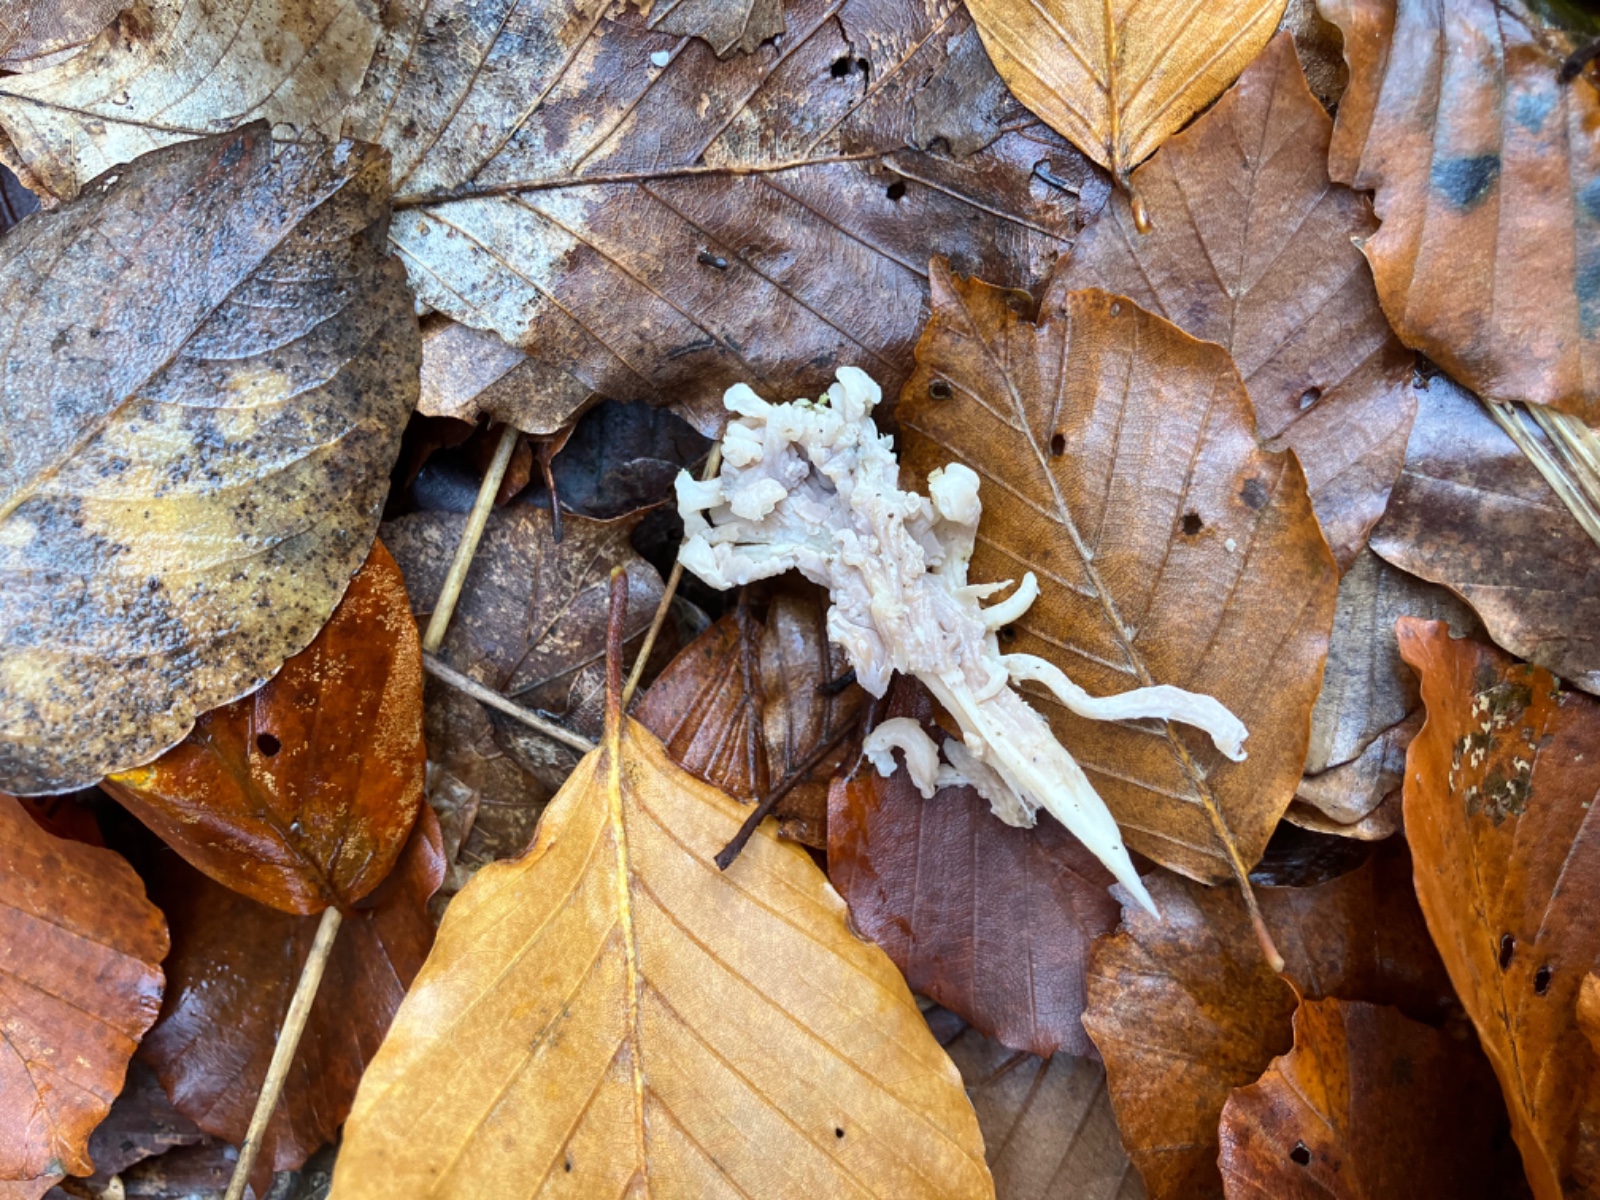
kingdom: Fungi
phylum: Basidiomycota
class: Agaricomycetes
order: Cantharellales
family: Hydnaceae
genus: Clavulina
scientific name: Clavulina
